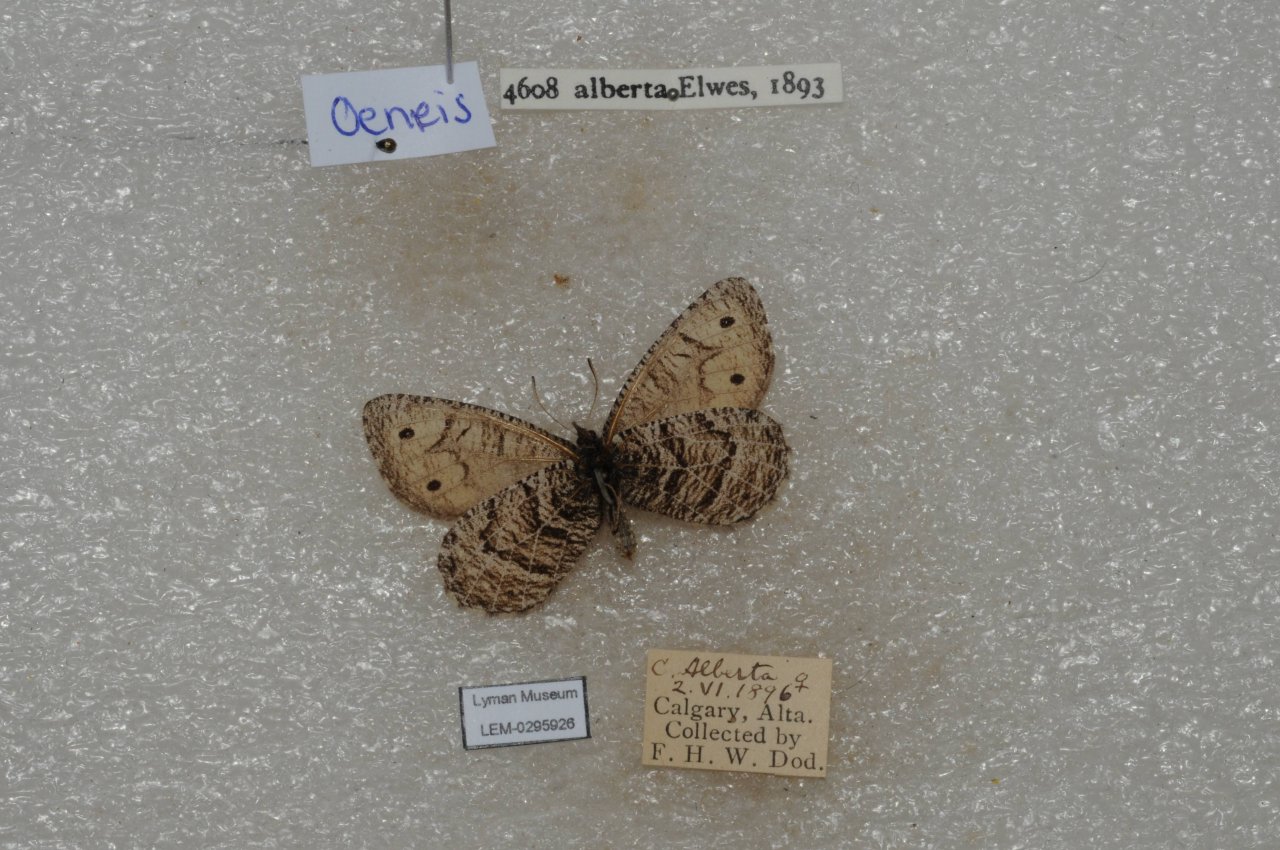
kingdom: Animalia
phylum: Arthropoda
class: Insecta
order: Lepidoptera
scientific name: Lepidoptera
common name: Butterflies
